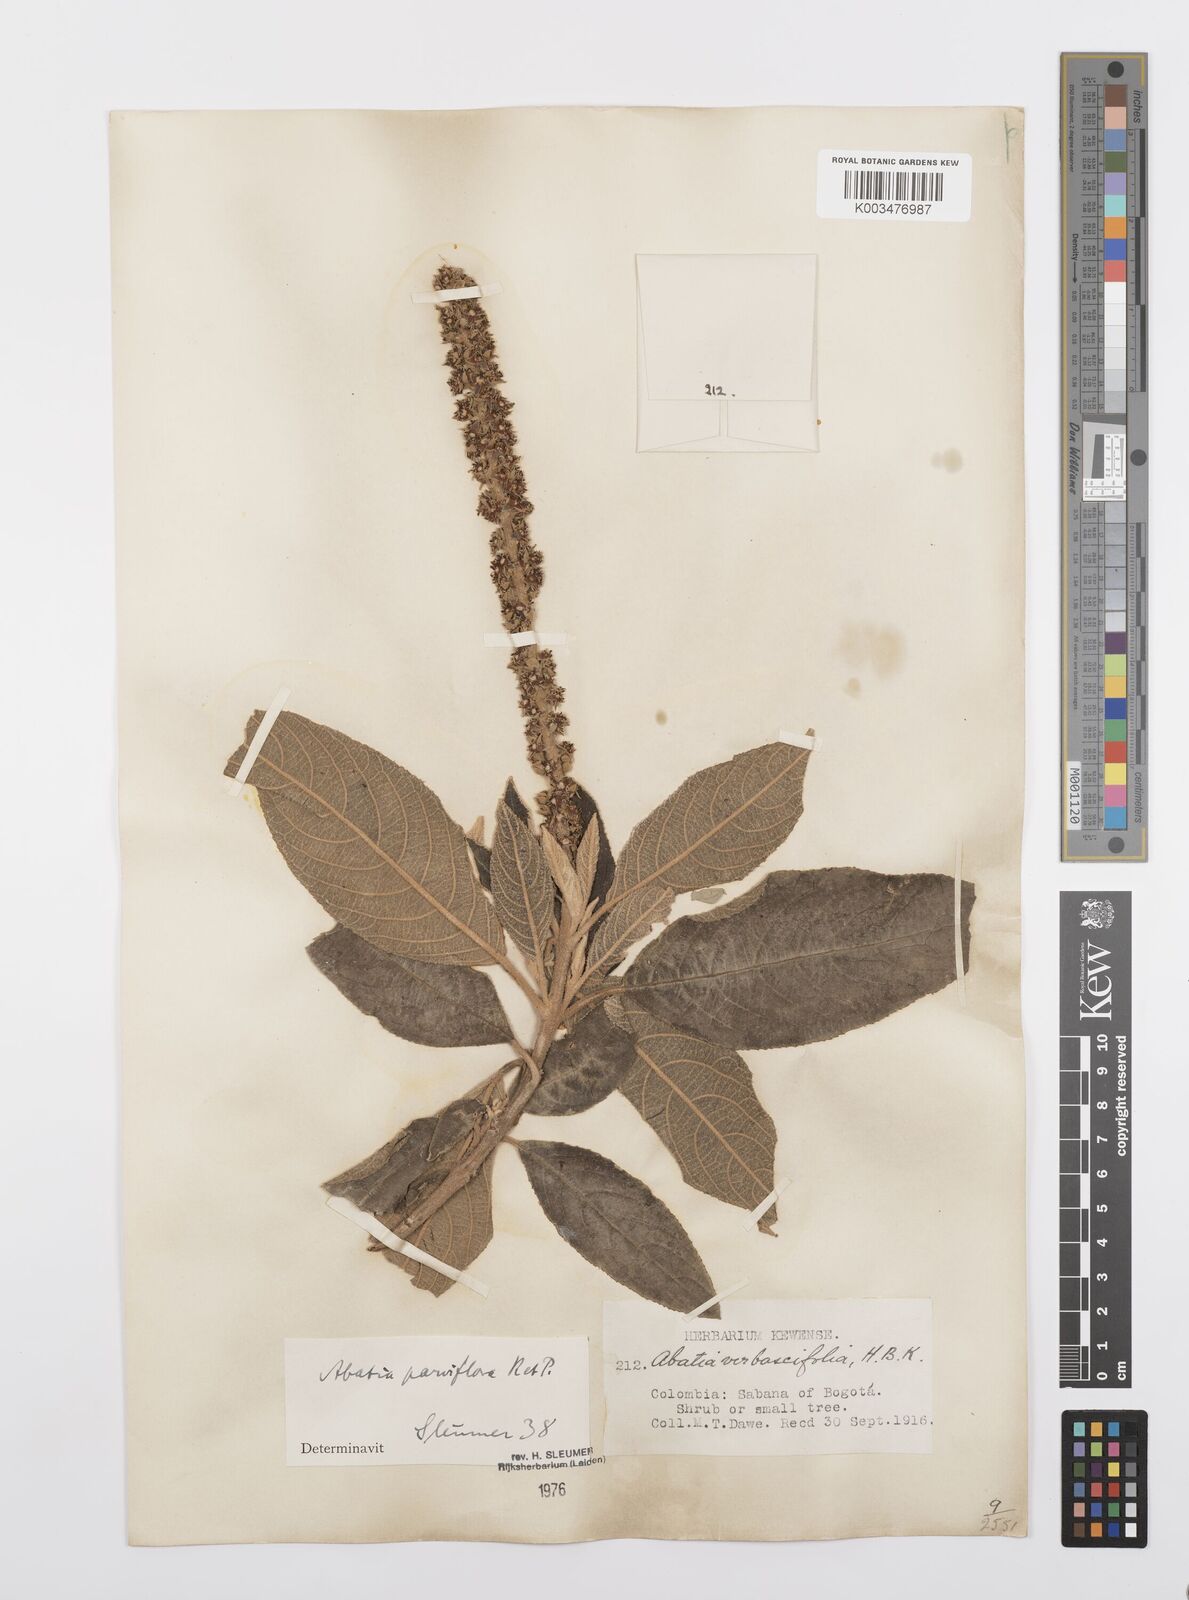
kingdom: Plantae
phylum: Tracheophyta
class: Magnoliopsida
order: Malpighiales
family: Salicaceae
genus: Abatia
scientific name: Abatia parviflora
